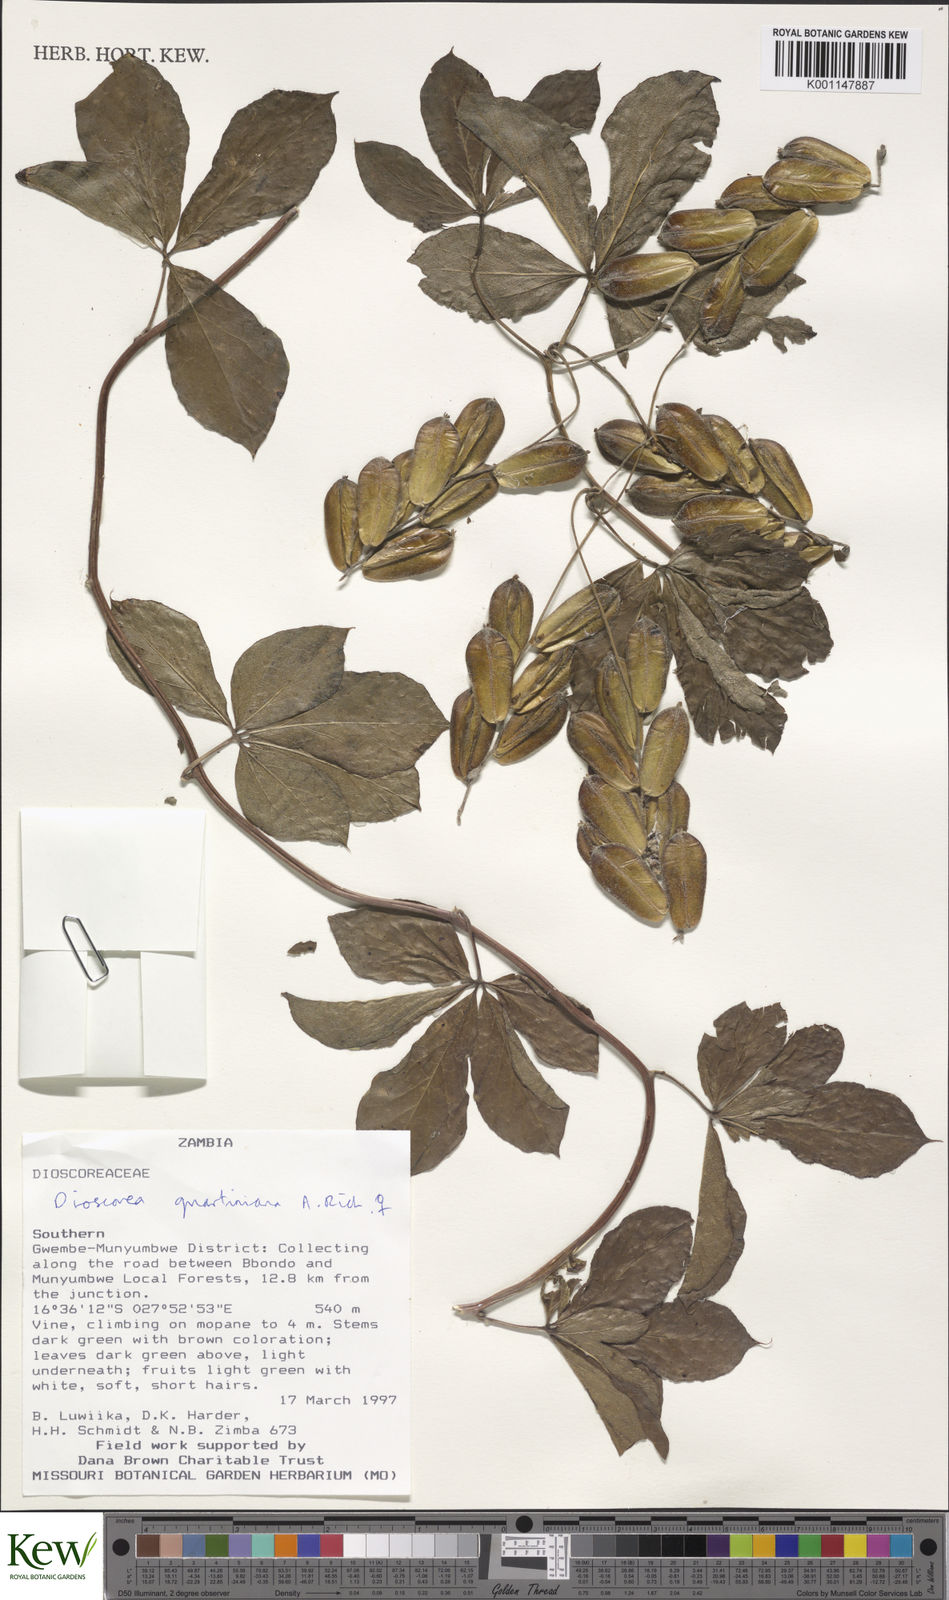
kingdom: Plantae
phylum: Tracheophyta
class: Liliopsida
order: Dioscoreales
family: Dioscoreaceae
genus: Dioscorea
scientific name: Dioscorea quartiniana
